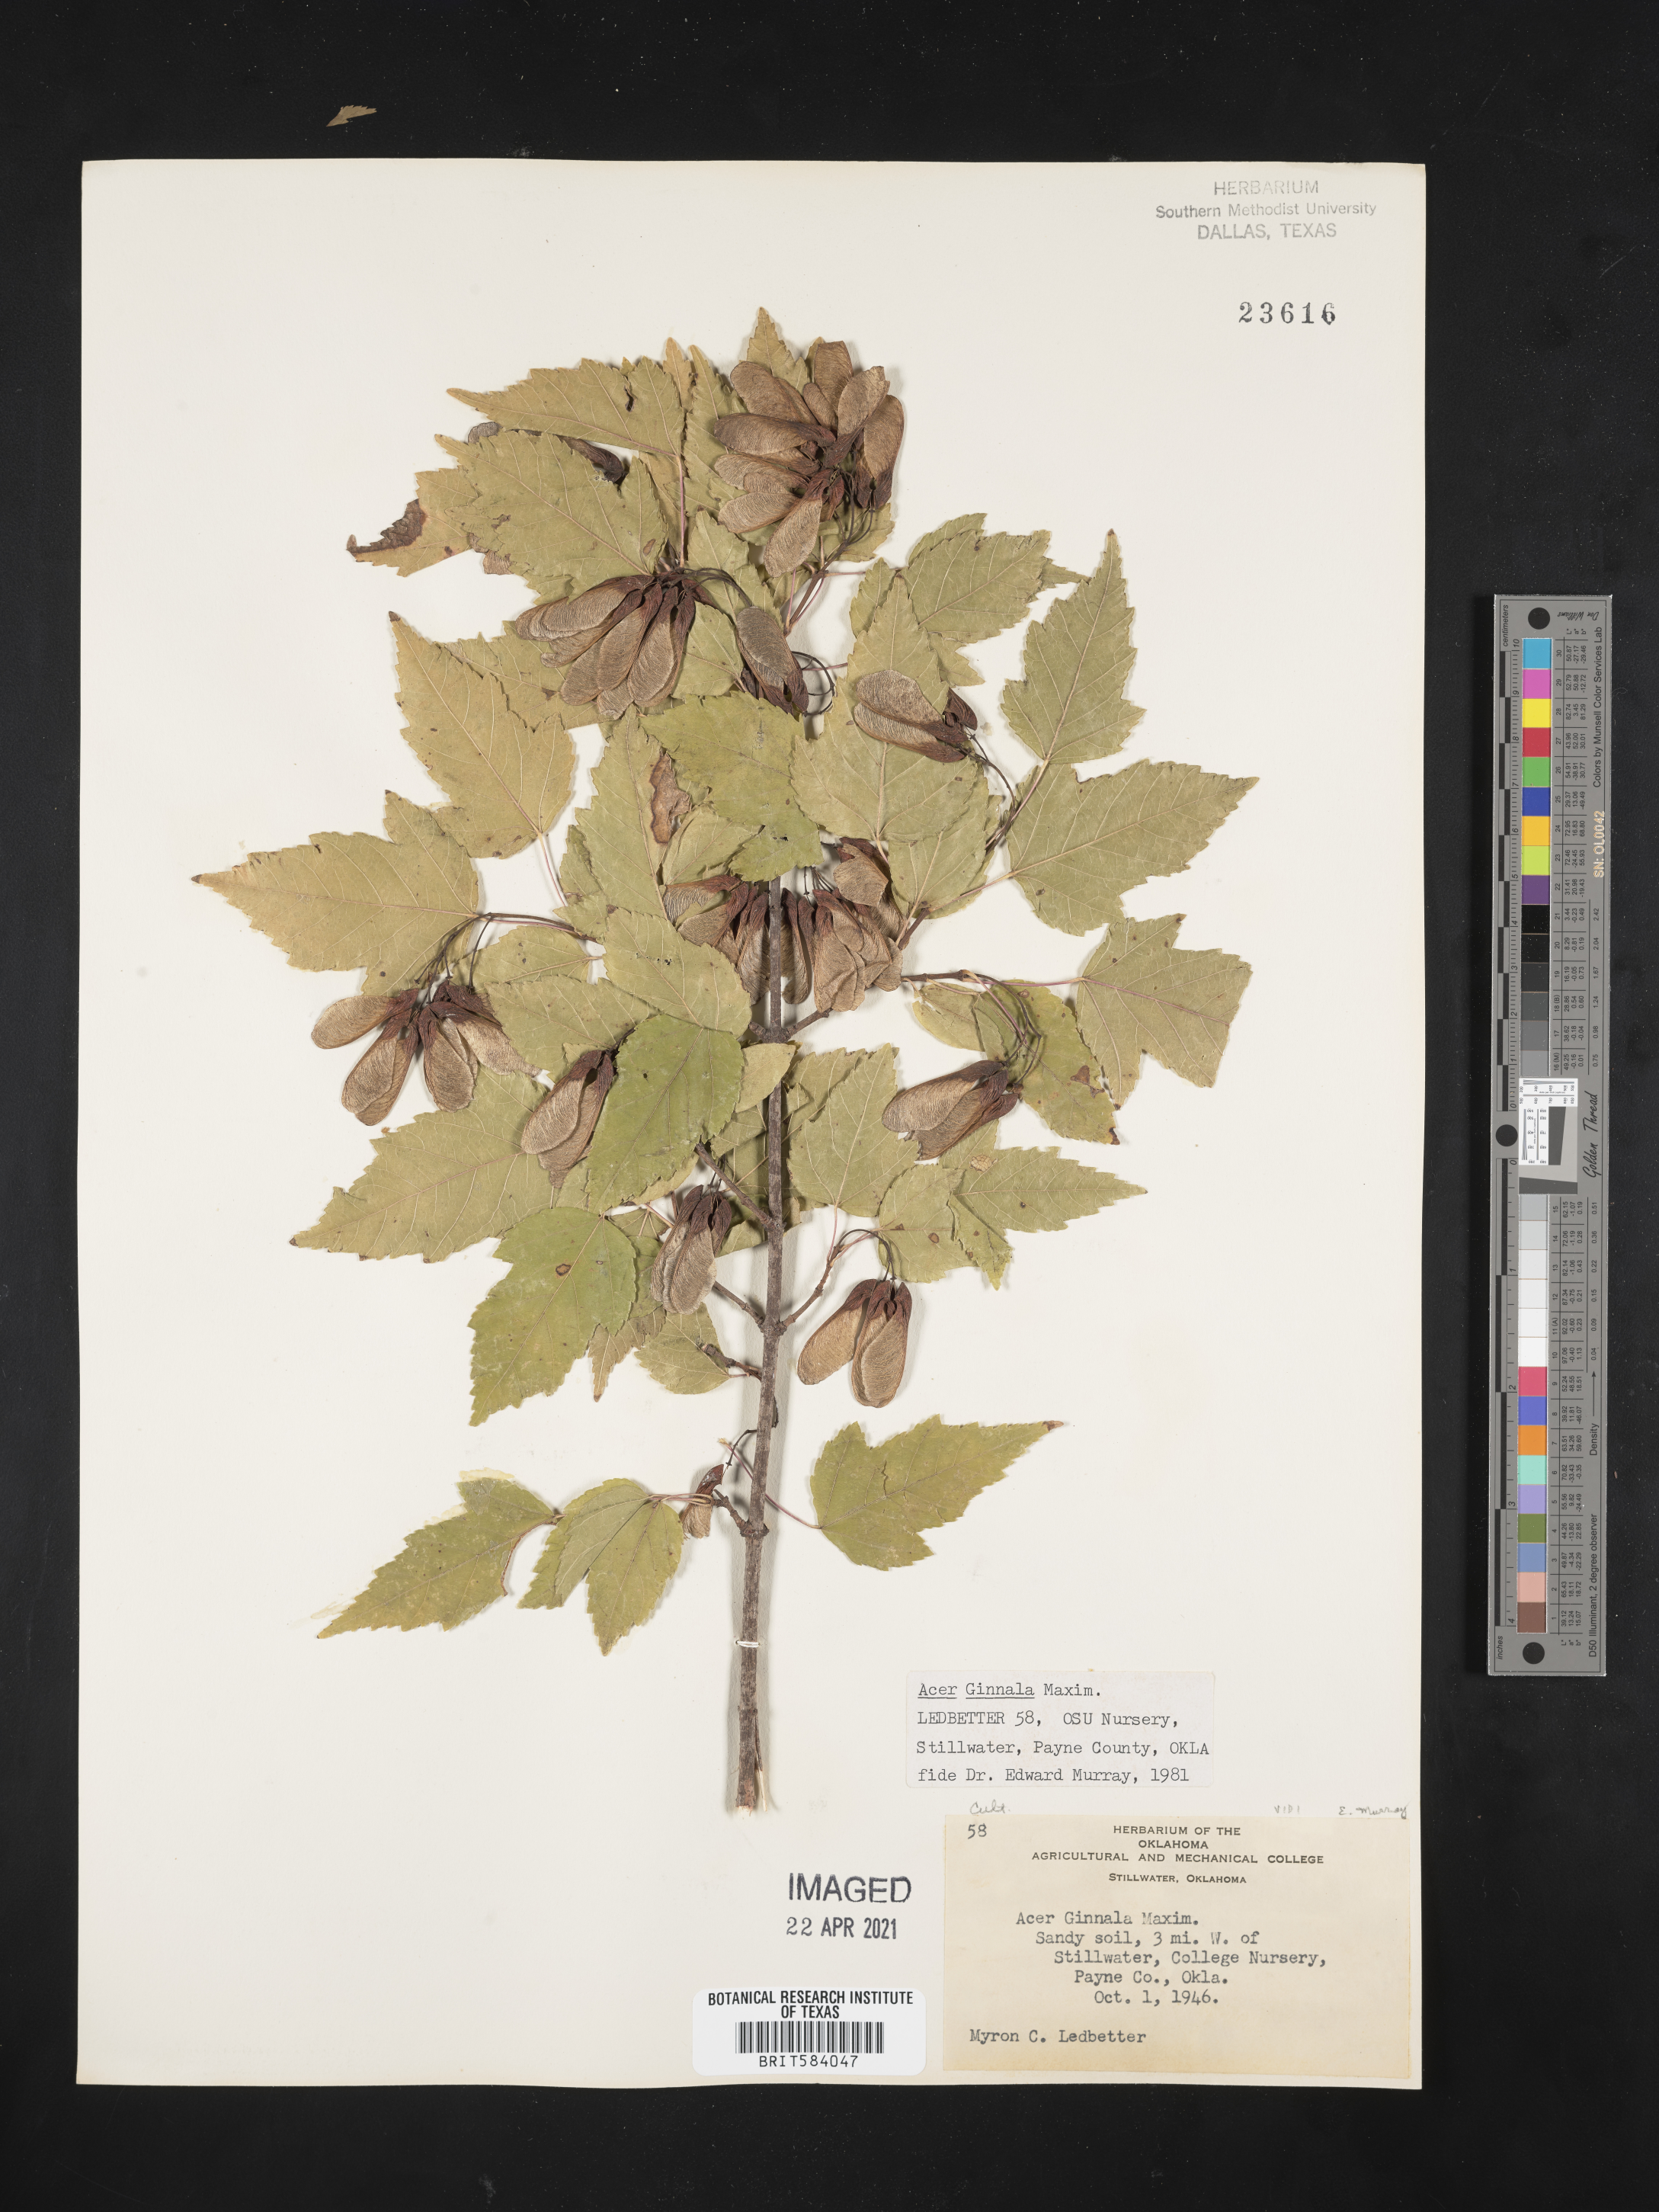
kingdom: Plantae
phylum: Tracheophyta
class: Magnoliopsida
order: Sapindales
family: Sapindaceae
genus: Acer
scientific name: Acer tataricum
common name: Tartar maple
